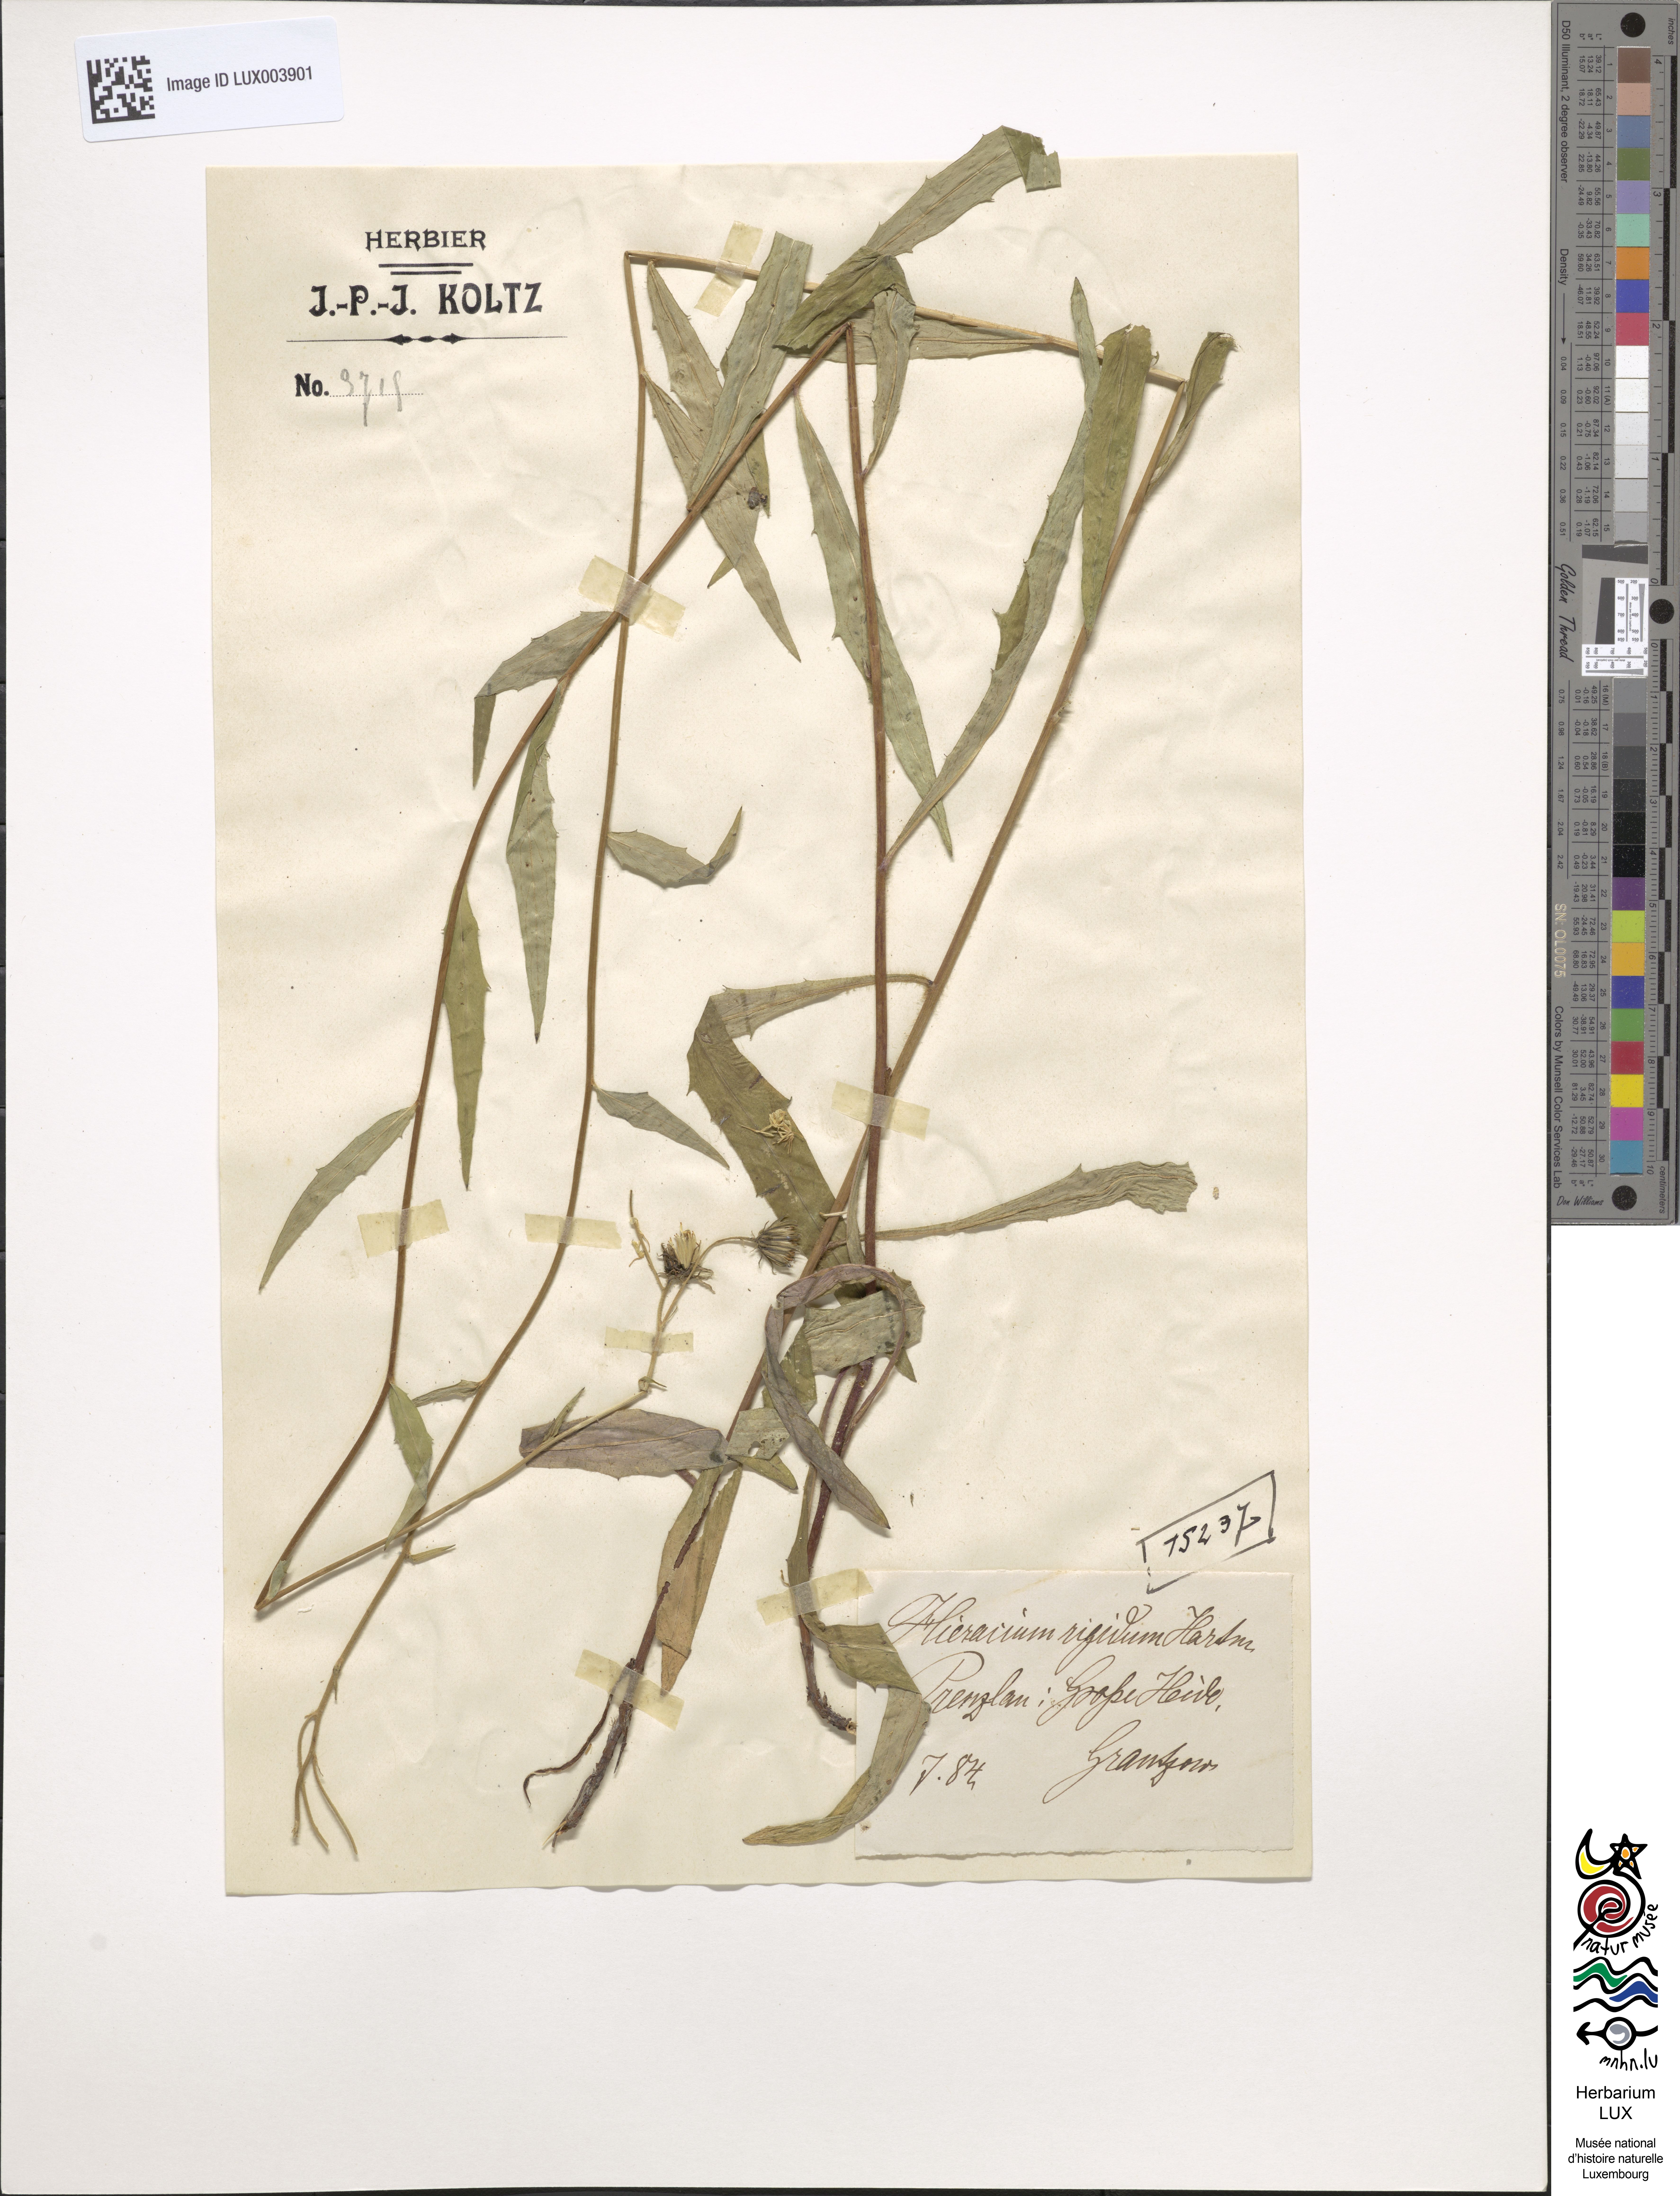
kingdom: Plantae
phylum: Tracheophyta
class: Magnoliopsida
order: Asterales
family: Asteraceae
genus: Hieracium
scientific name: Hieracium laevigatum
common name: Smooth hawkweed
